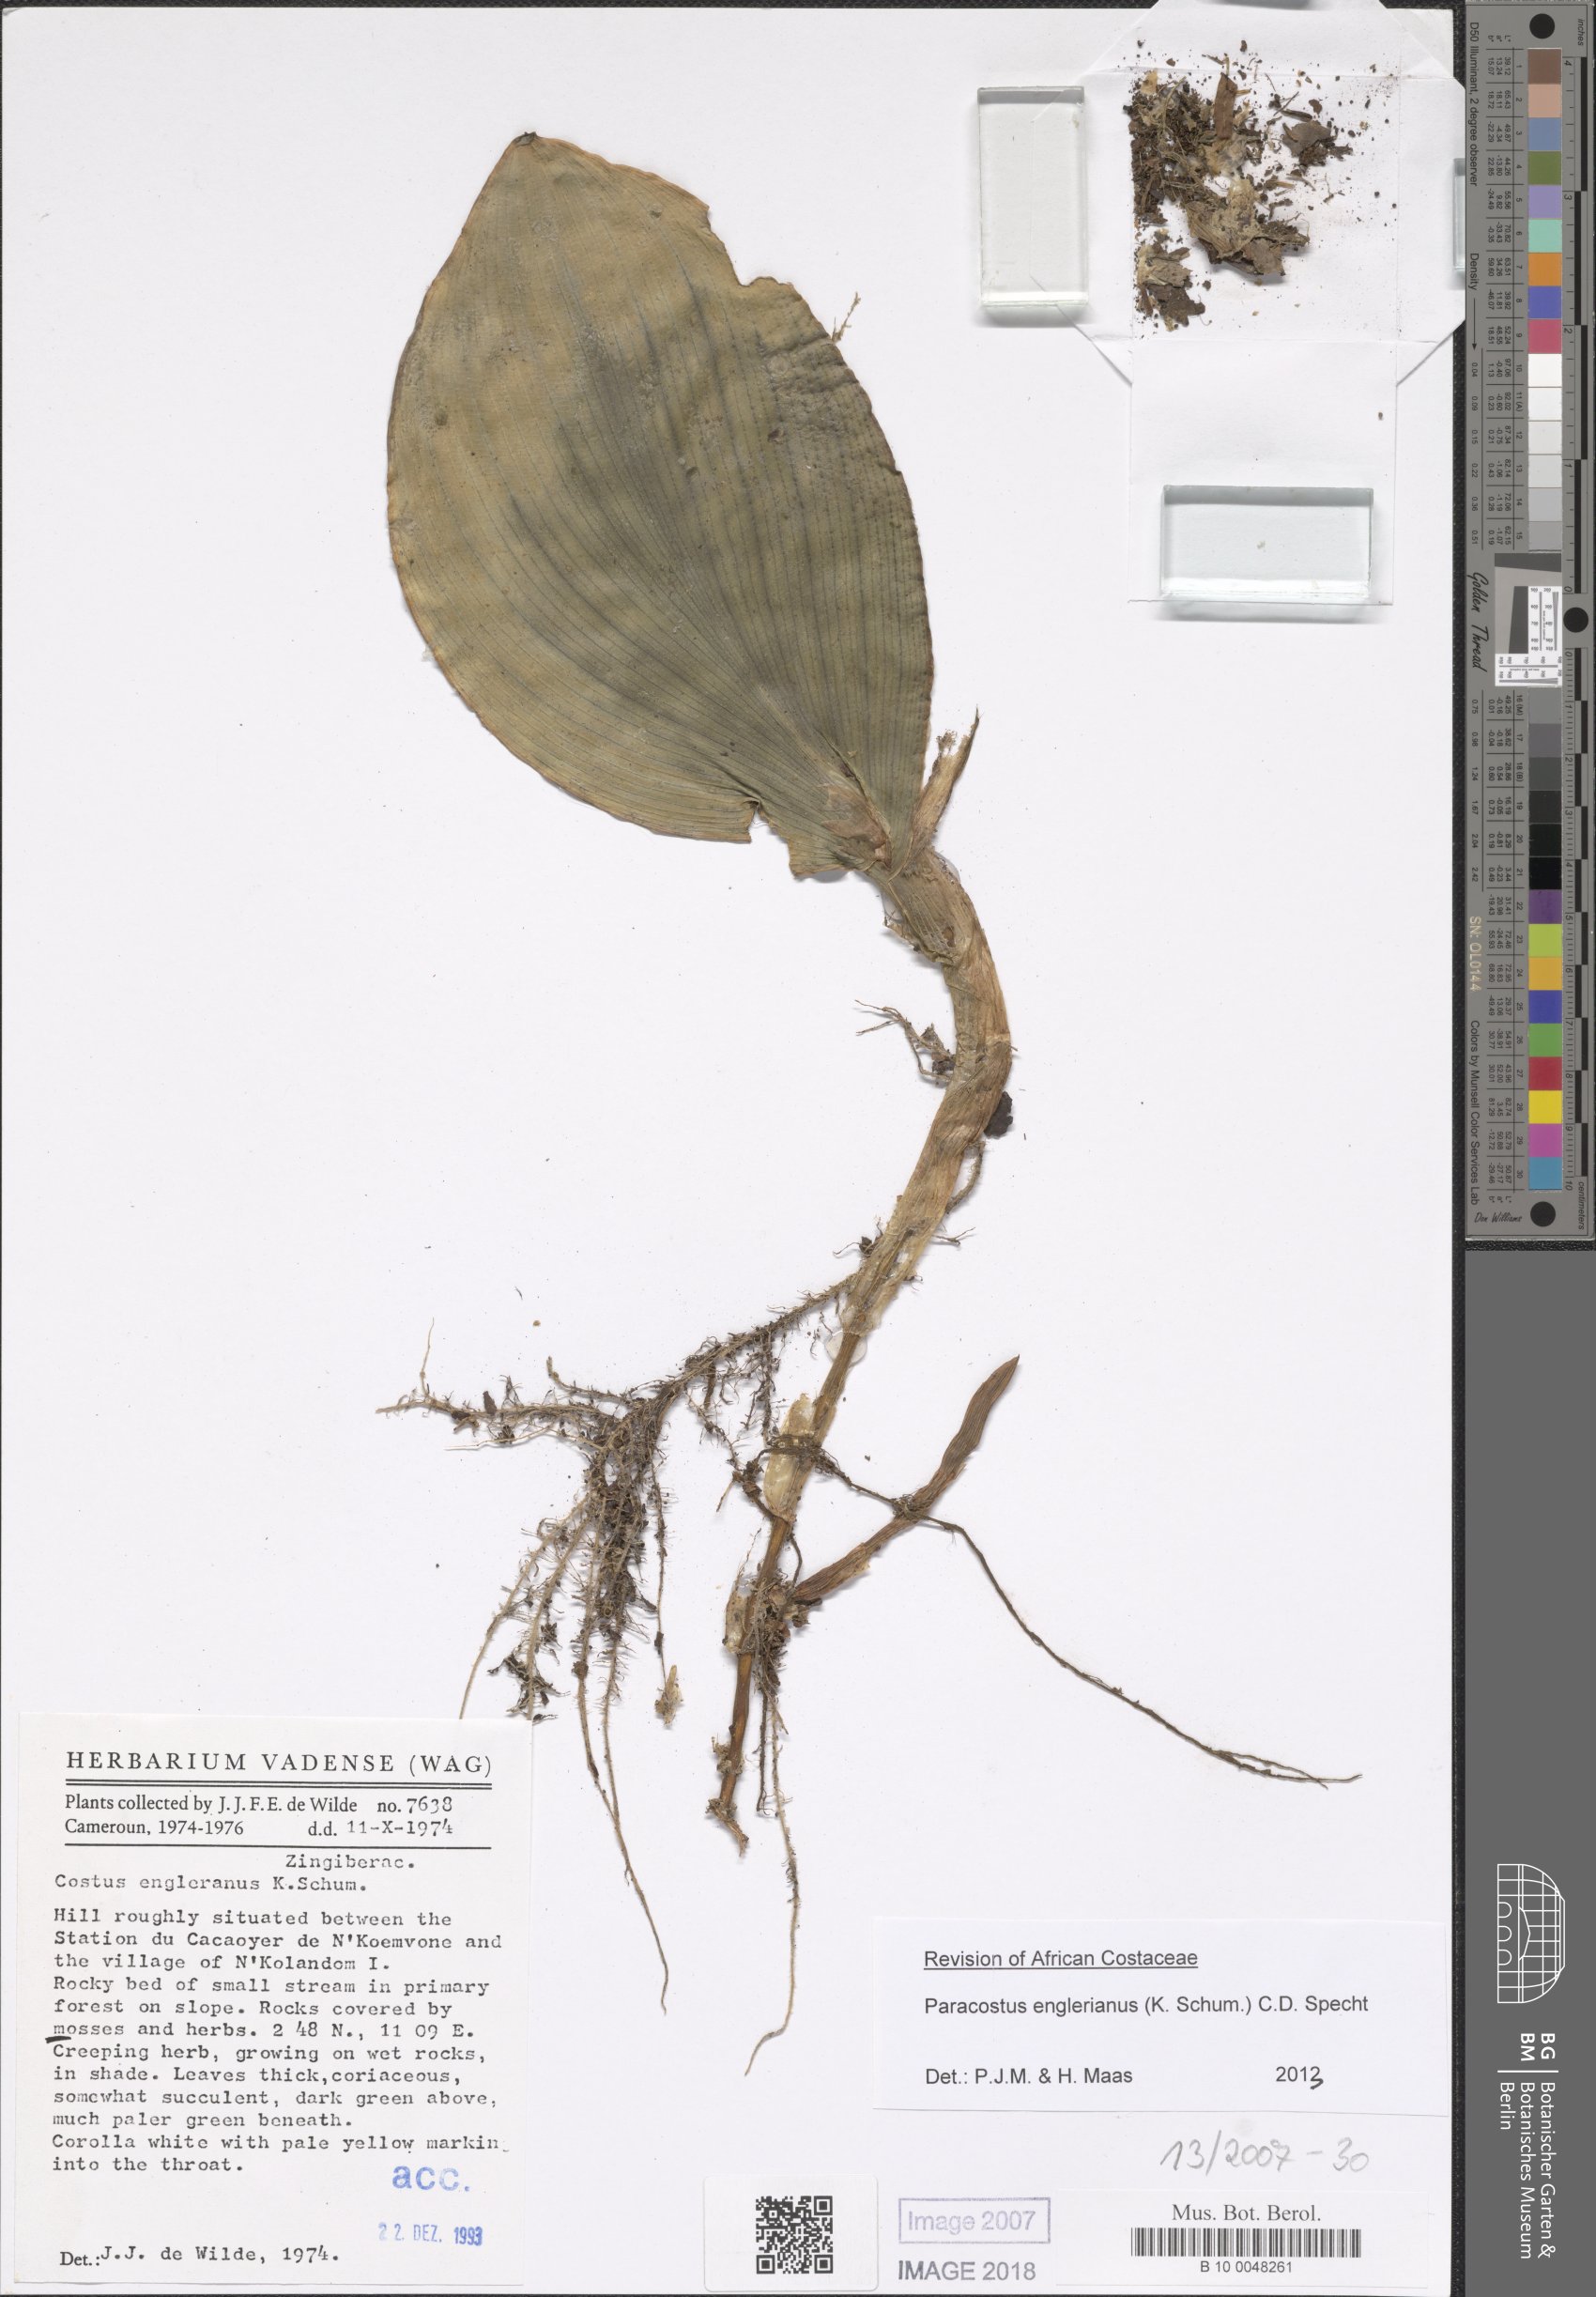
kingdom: Plantae
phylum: Tracheophyta
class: Liliopsida
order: Zingiberales
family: Costaceae
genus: Paracostus
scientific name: Paracostus englerianus
